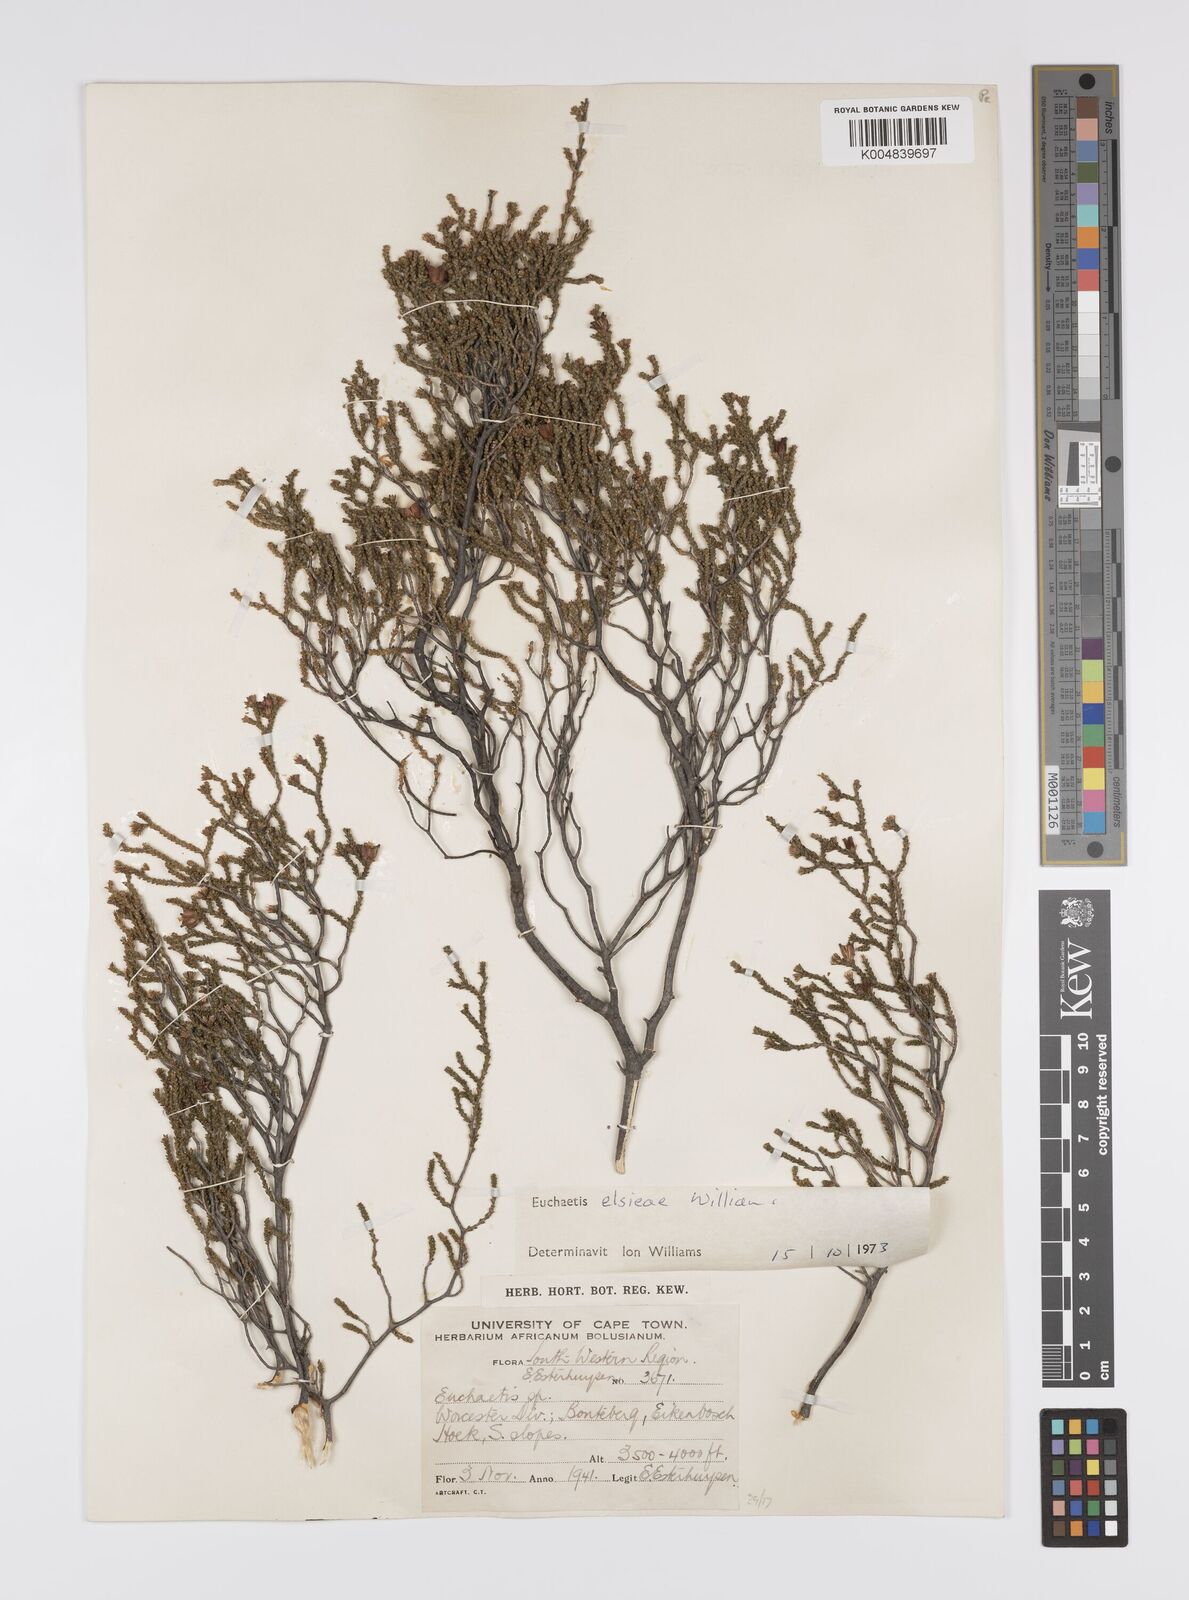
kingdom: Plantae
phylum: Tracheophyta
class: Magnoliopsida
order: Sapindales
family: Rutaceae
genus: Euchaetis
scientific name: Euchaetis elsieae
